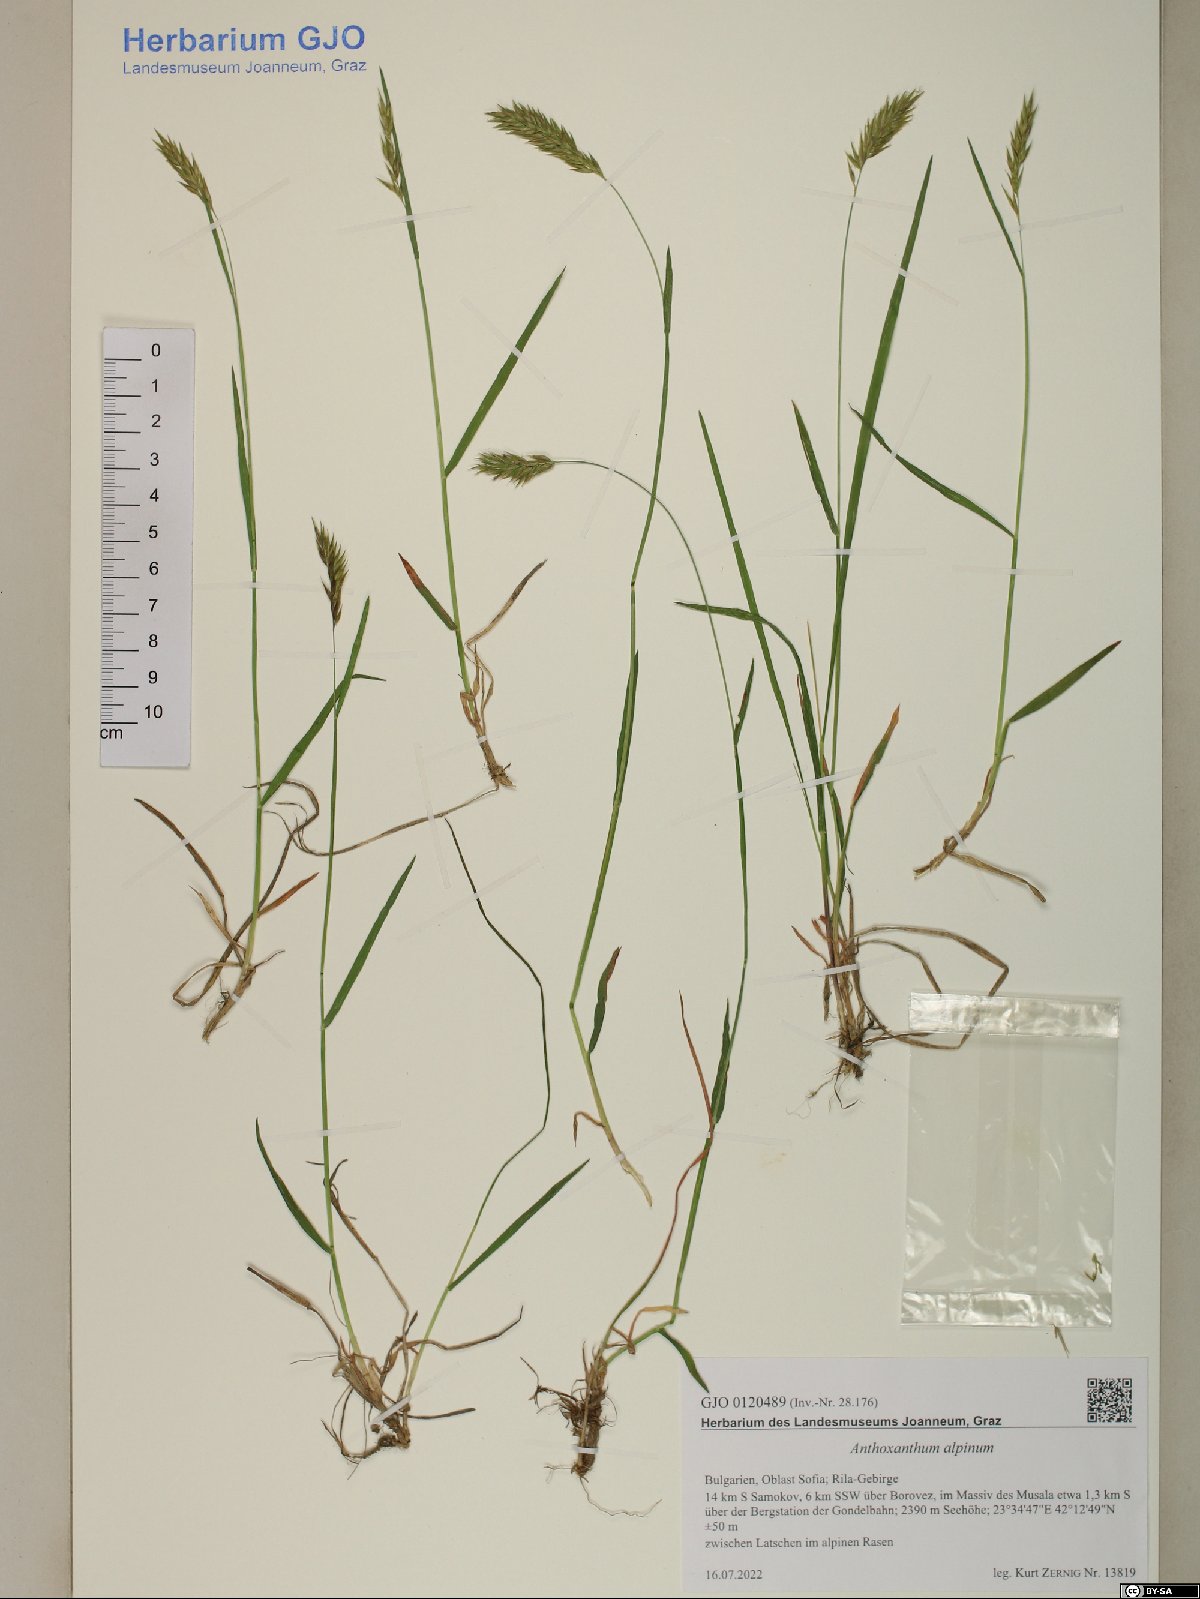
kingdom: Plantae
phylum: Tracheophyta
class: Liliopsida
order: Poales
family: Poaceae
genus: Anthoxanthum
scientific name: Anthoxanthum nipponicum
